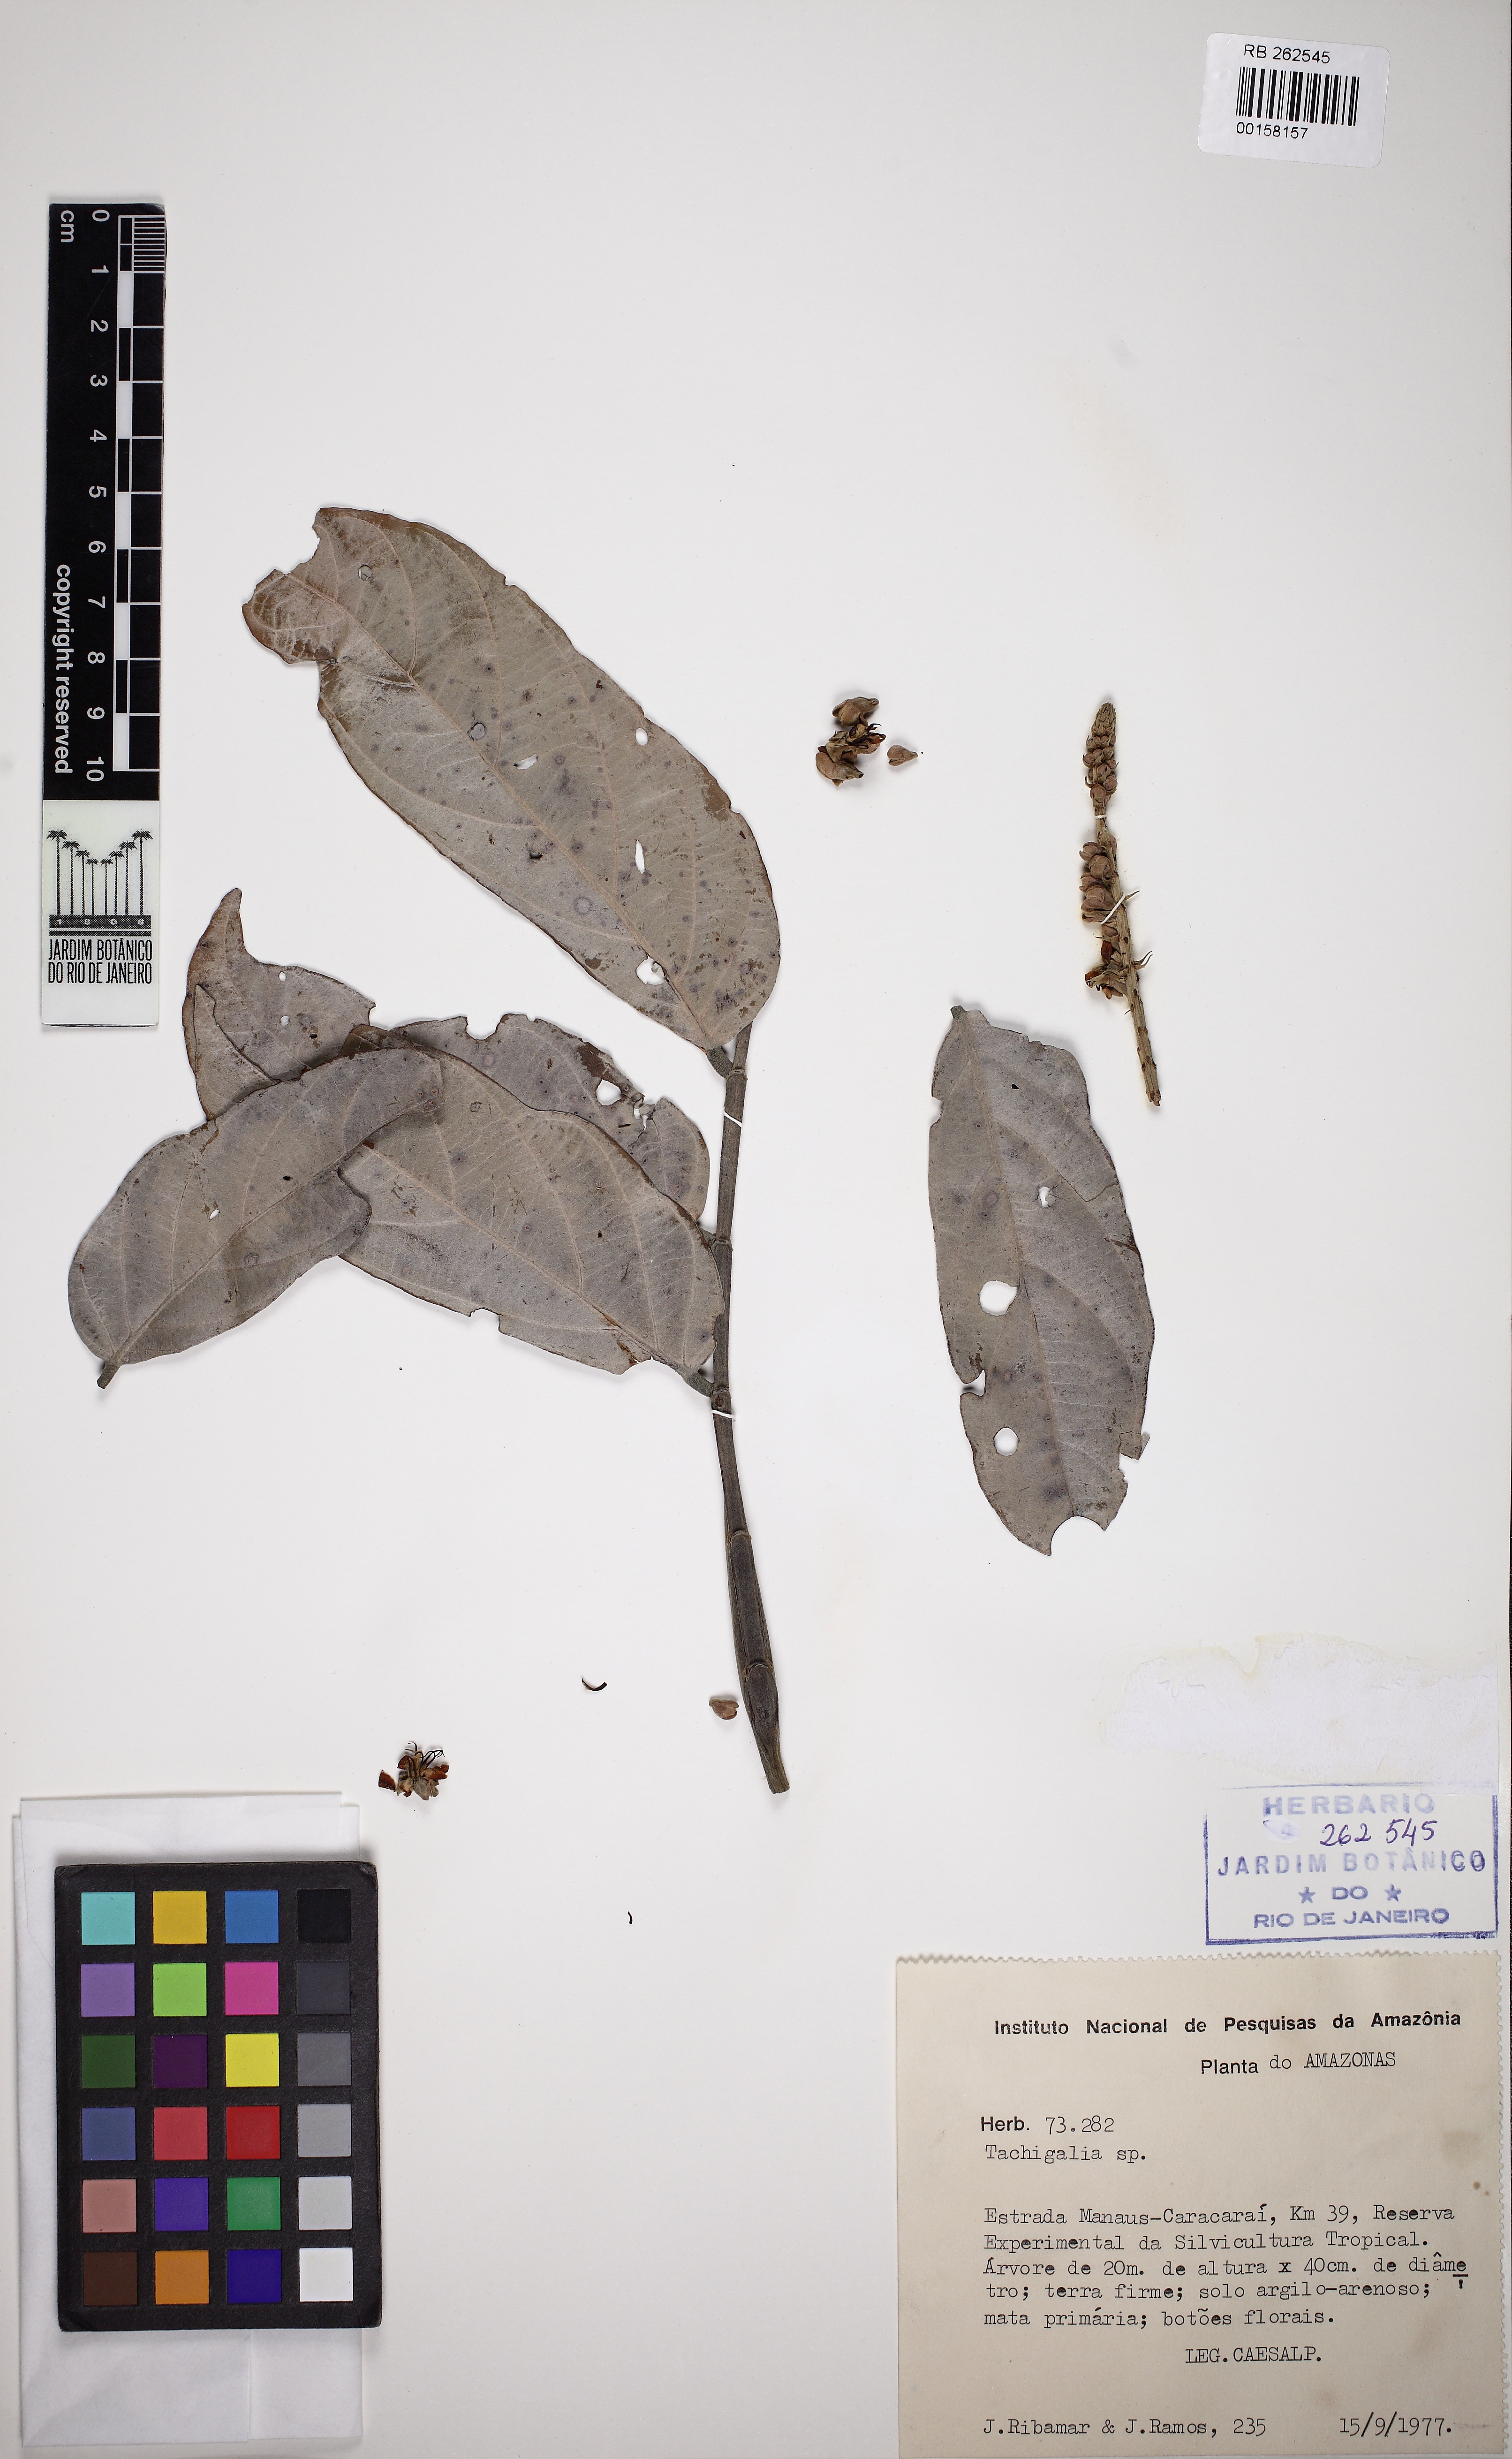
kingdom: Plantae
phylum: Tracheophyta
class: Magnoliopsida
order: Fabales
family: Fabaceae
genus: Tachigali
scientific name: Tachigali venusta
